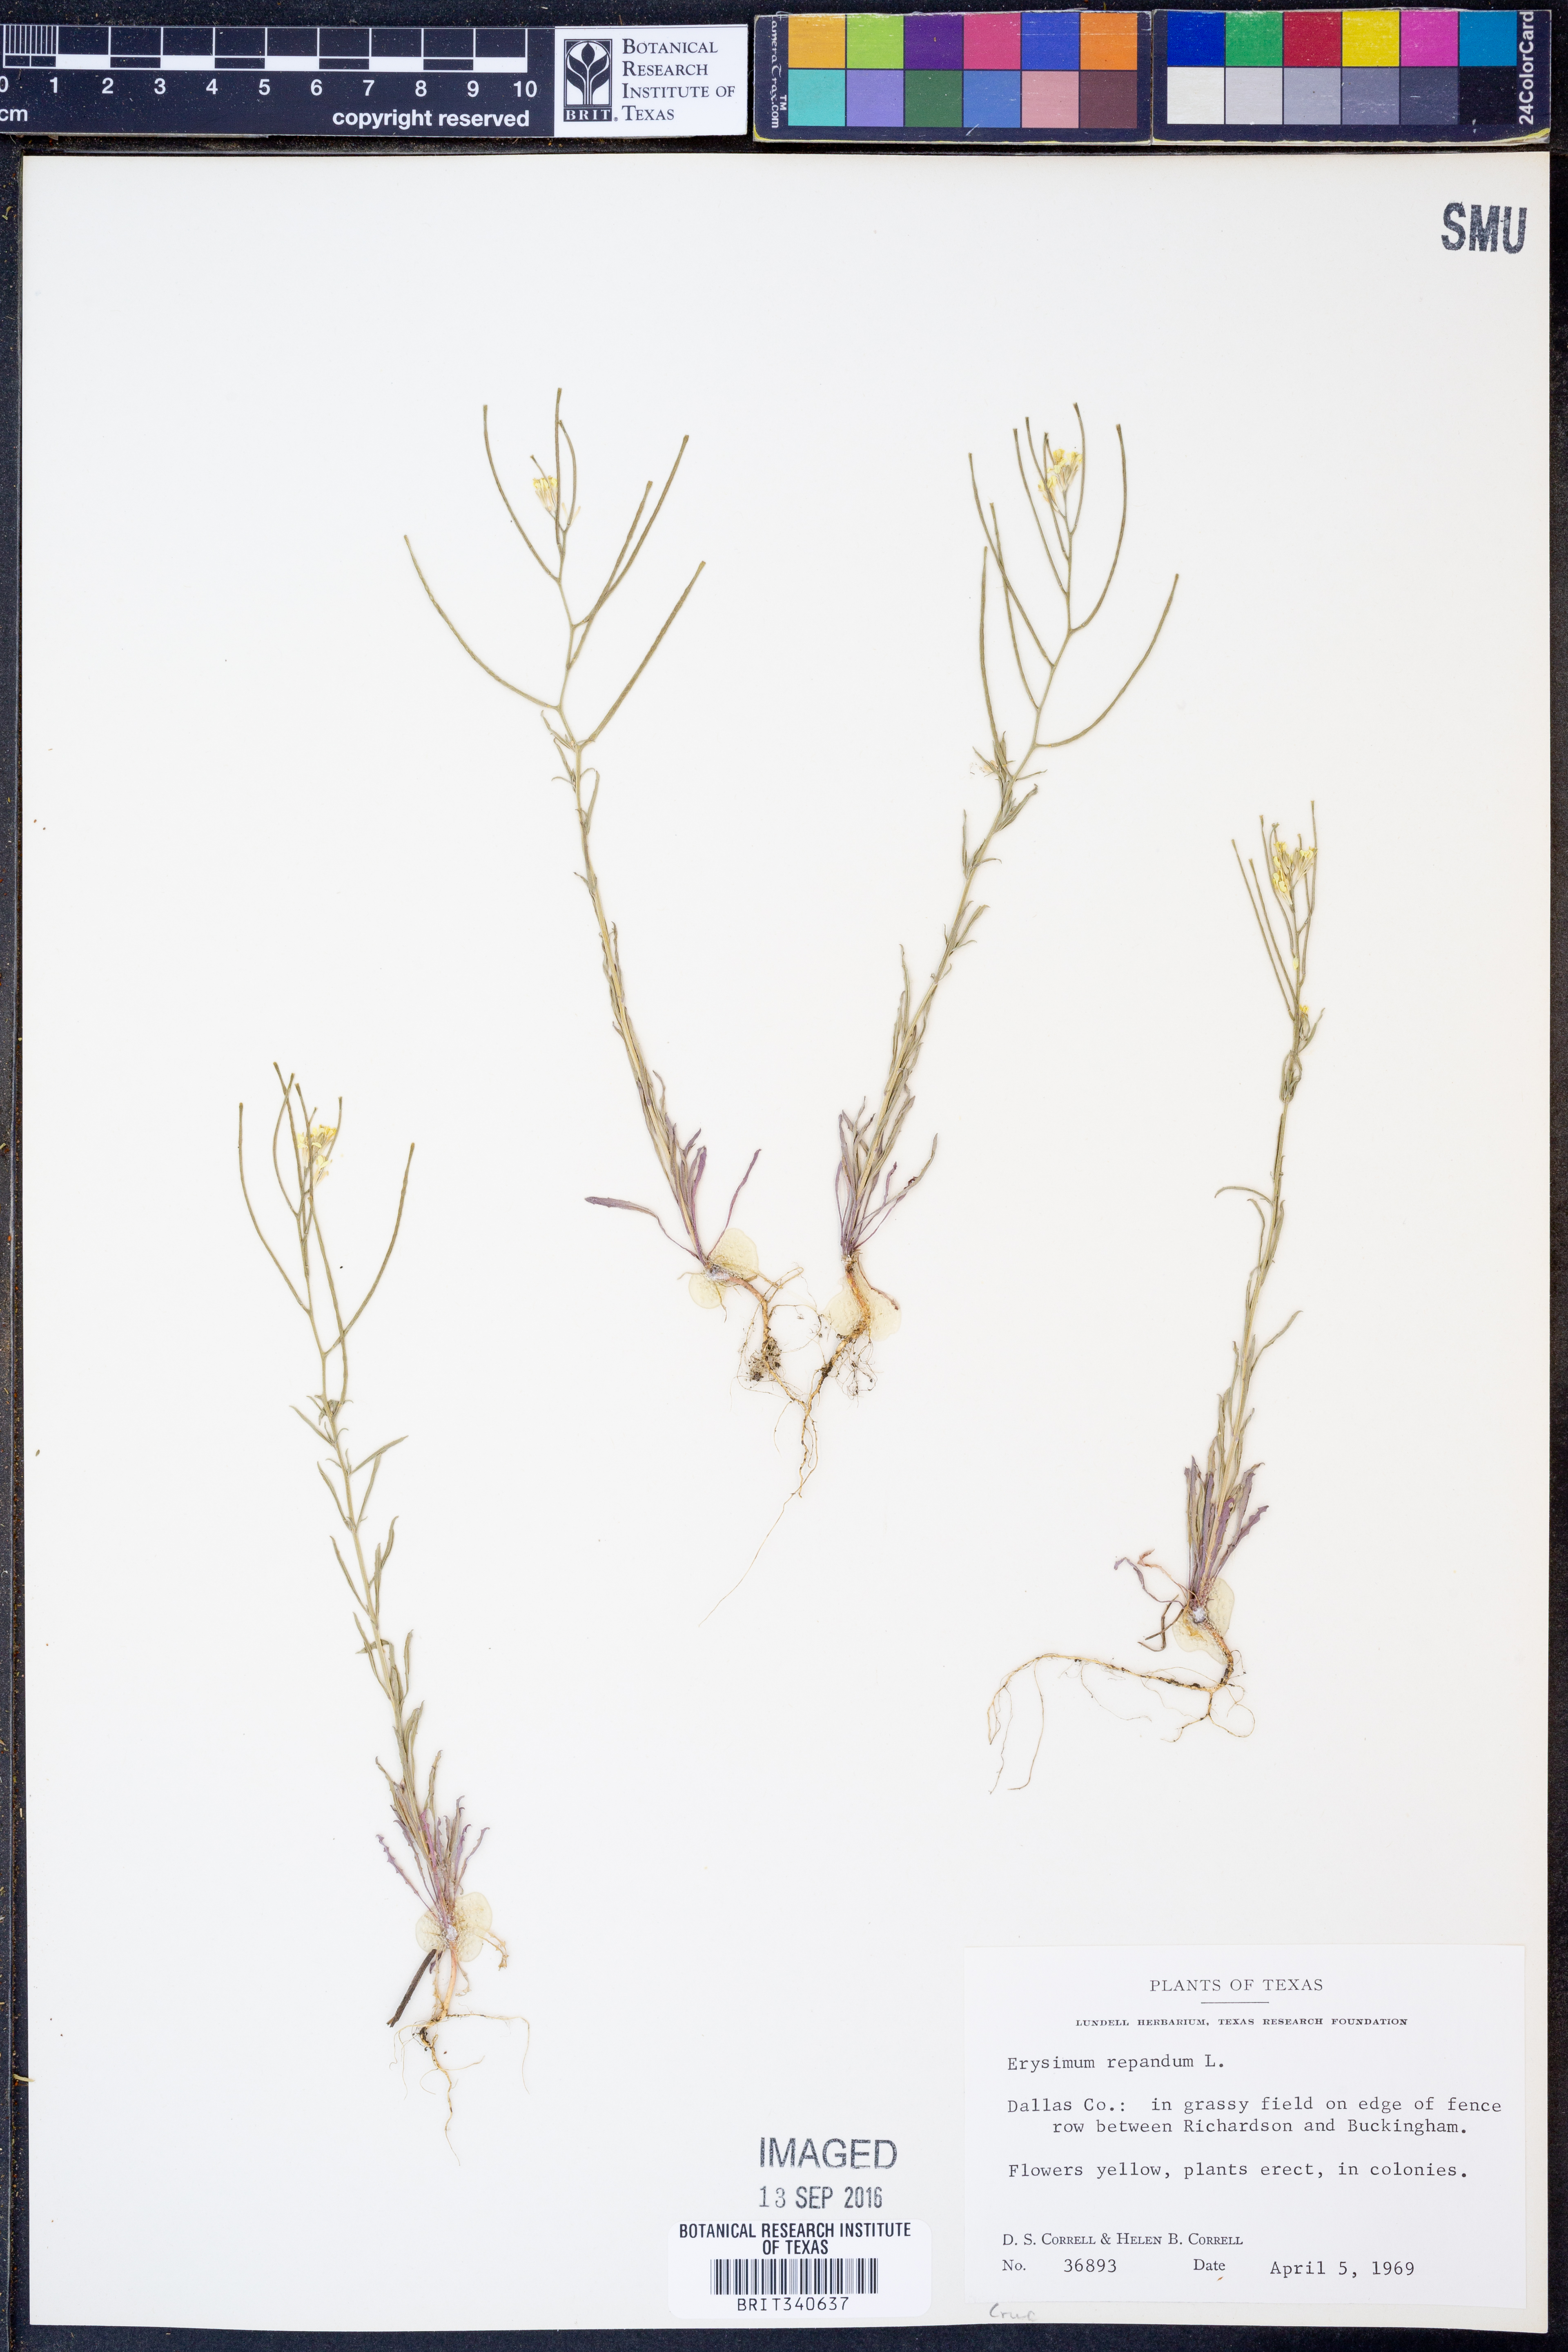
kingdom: Plantae
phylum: Tracheophyta
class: Magnoliopsida
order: Brassicales
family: Brassicaceae
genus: Erysimum
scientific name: Erysimum repandum
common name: Spreading wallflower
